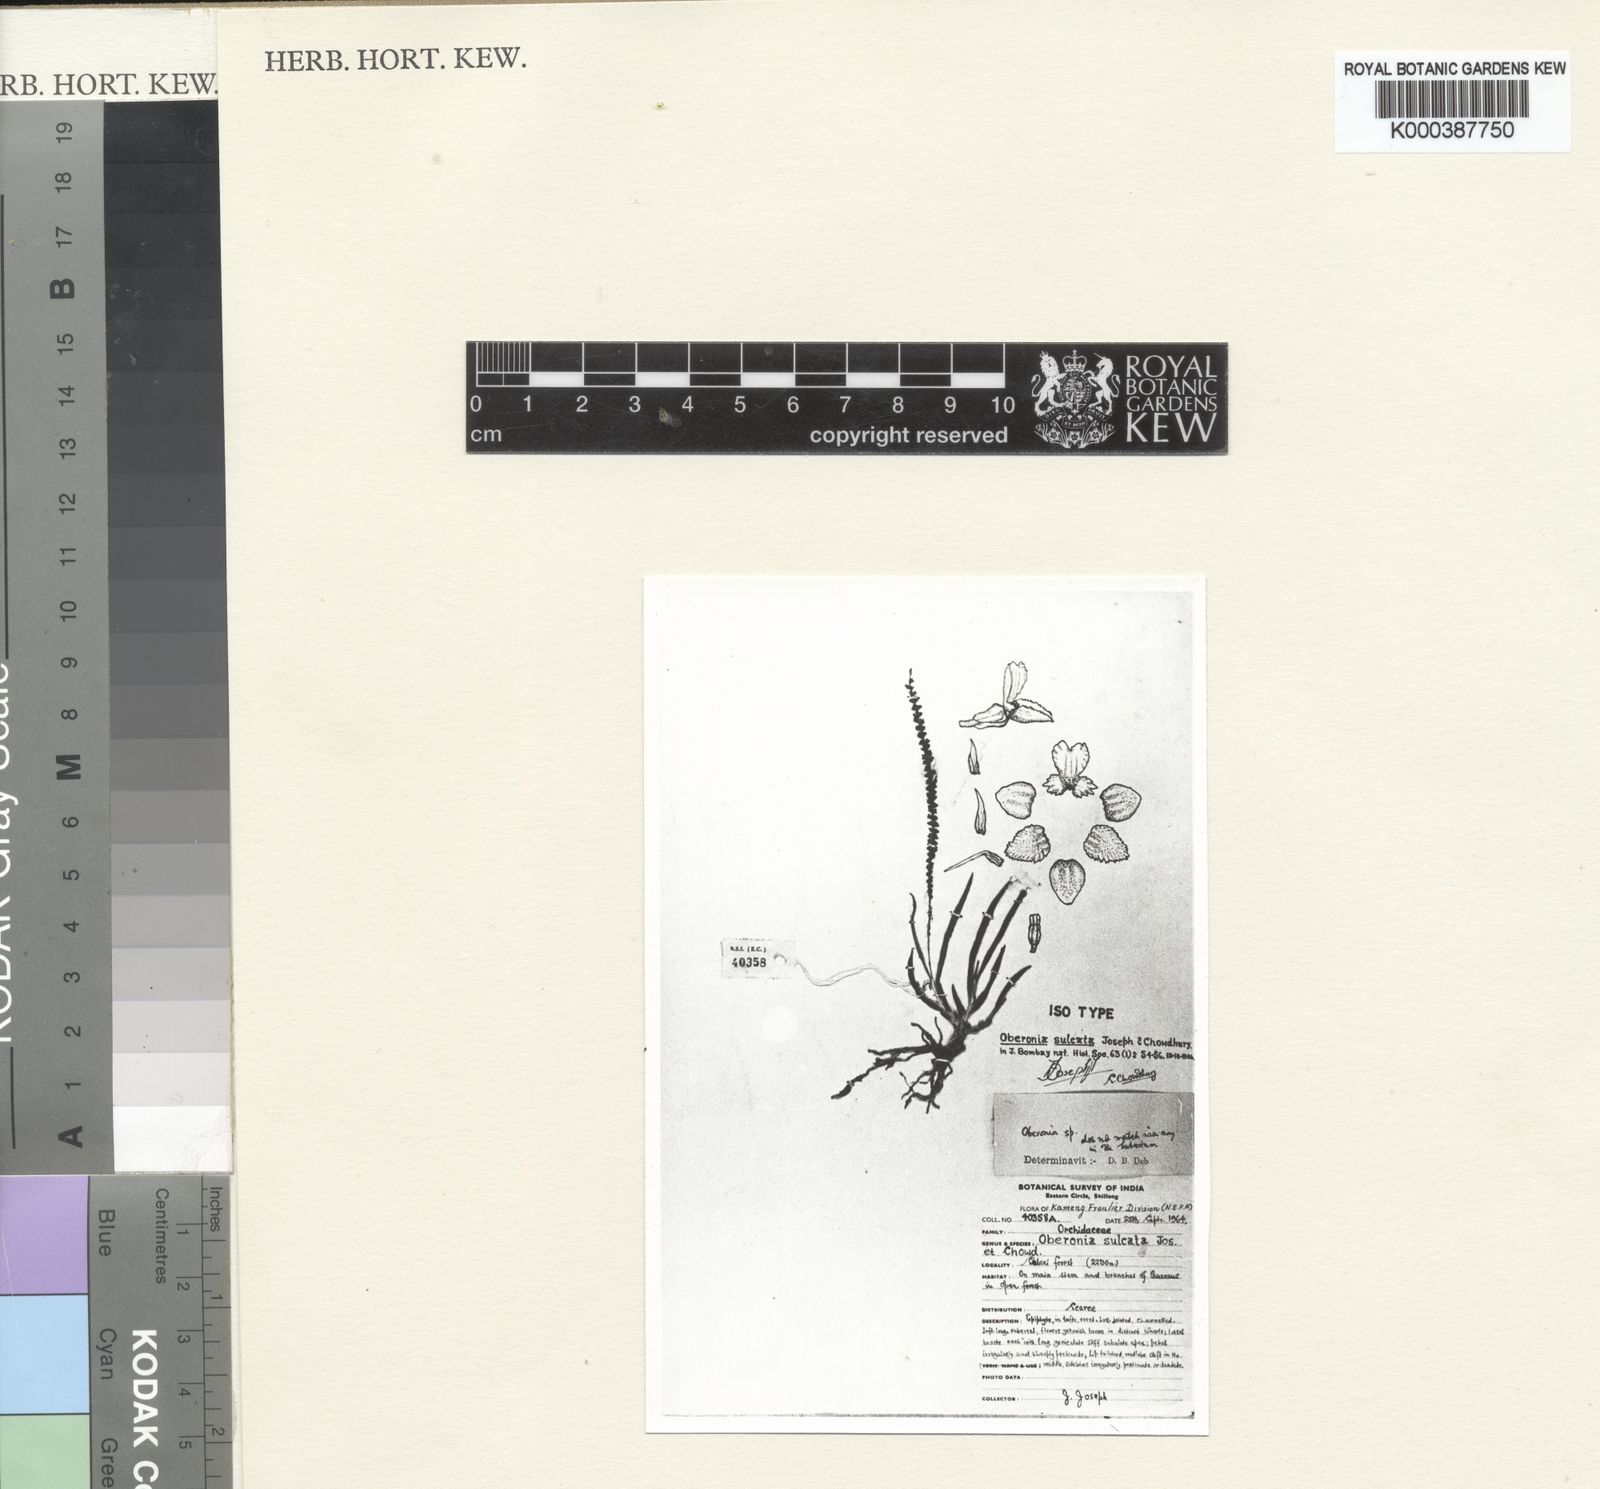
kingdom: Plantae
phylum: Tracheophyta
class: Liliopsida
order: Asparagales
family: Orchidaceae
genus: Oberonia
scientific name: Oberonia langbianensis
